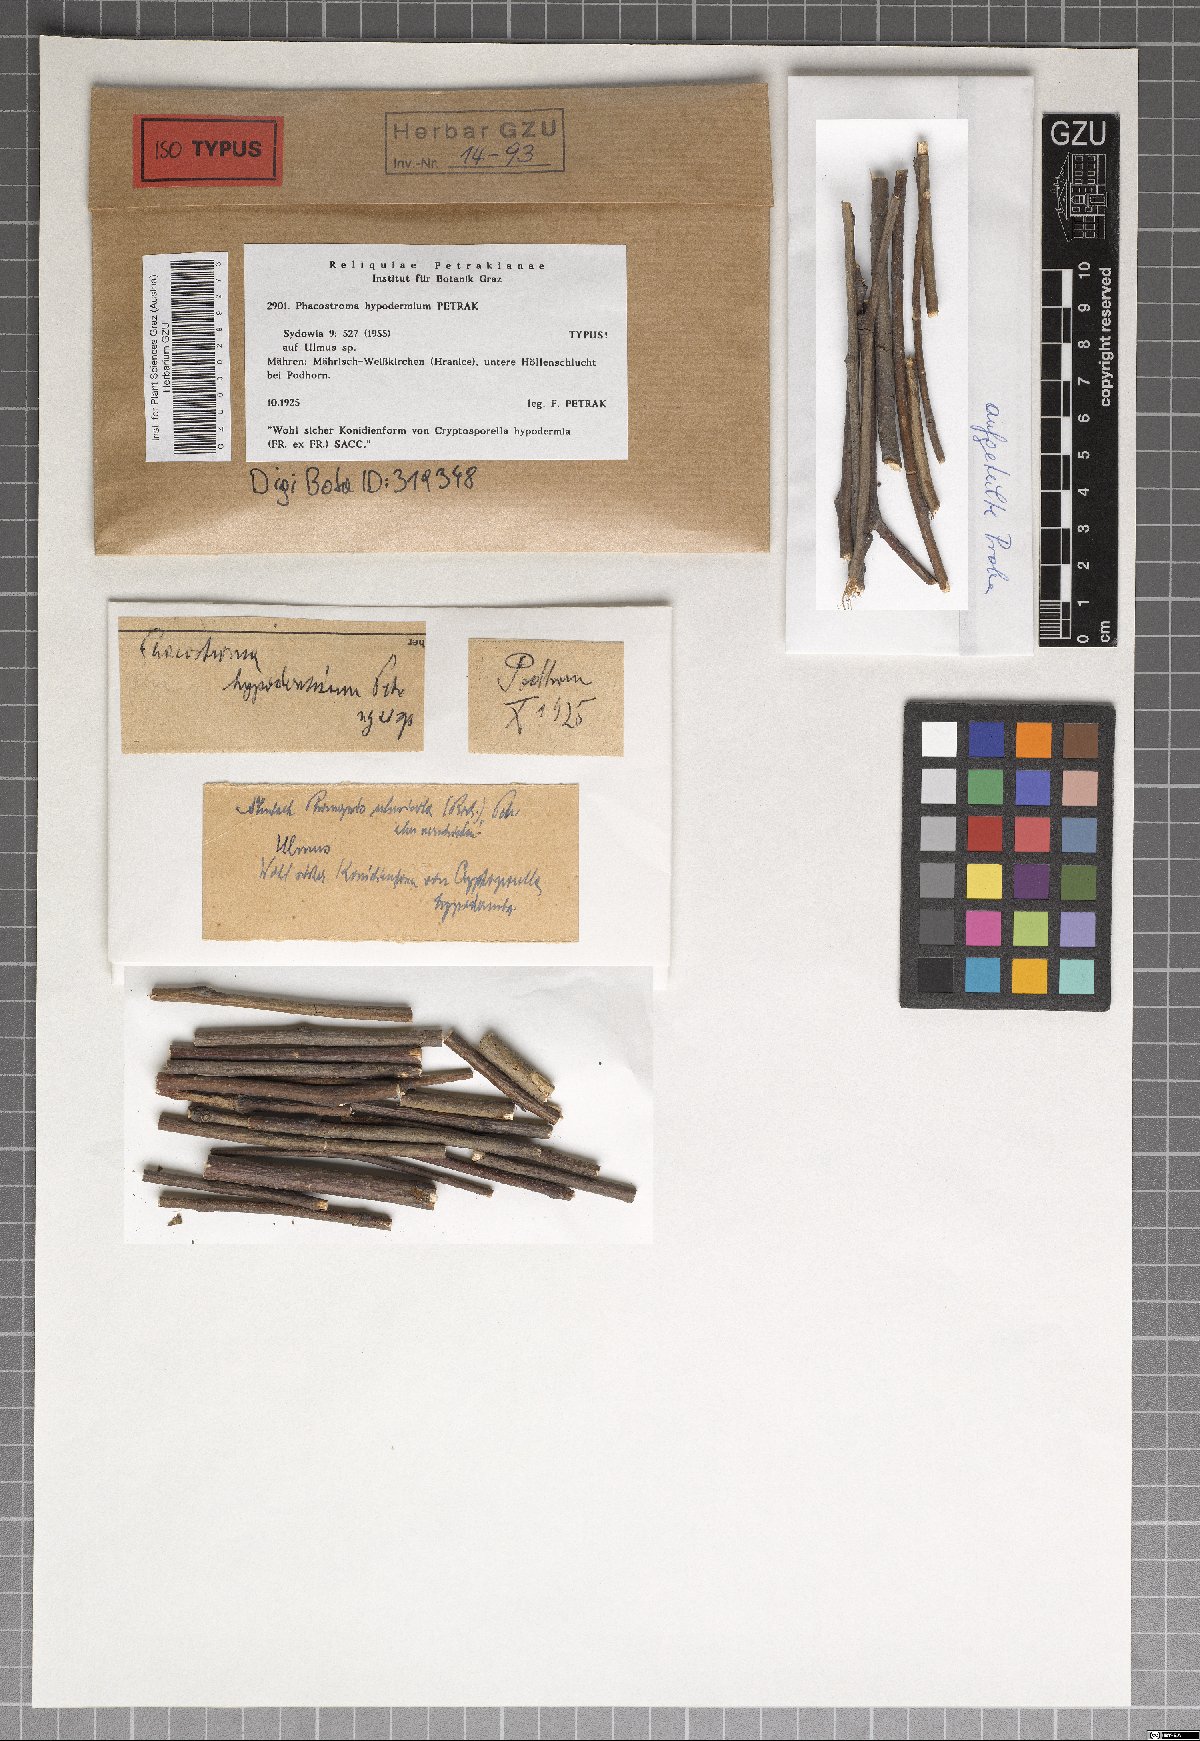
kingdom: Fungi
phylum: Ascomycota
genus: Phacostroma
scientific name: Phacostroma hypodermium
